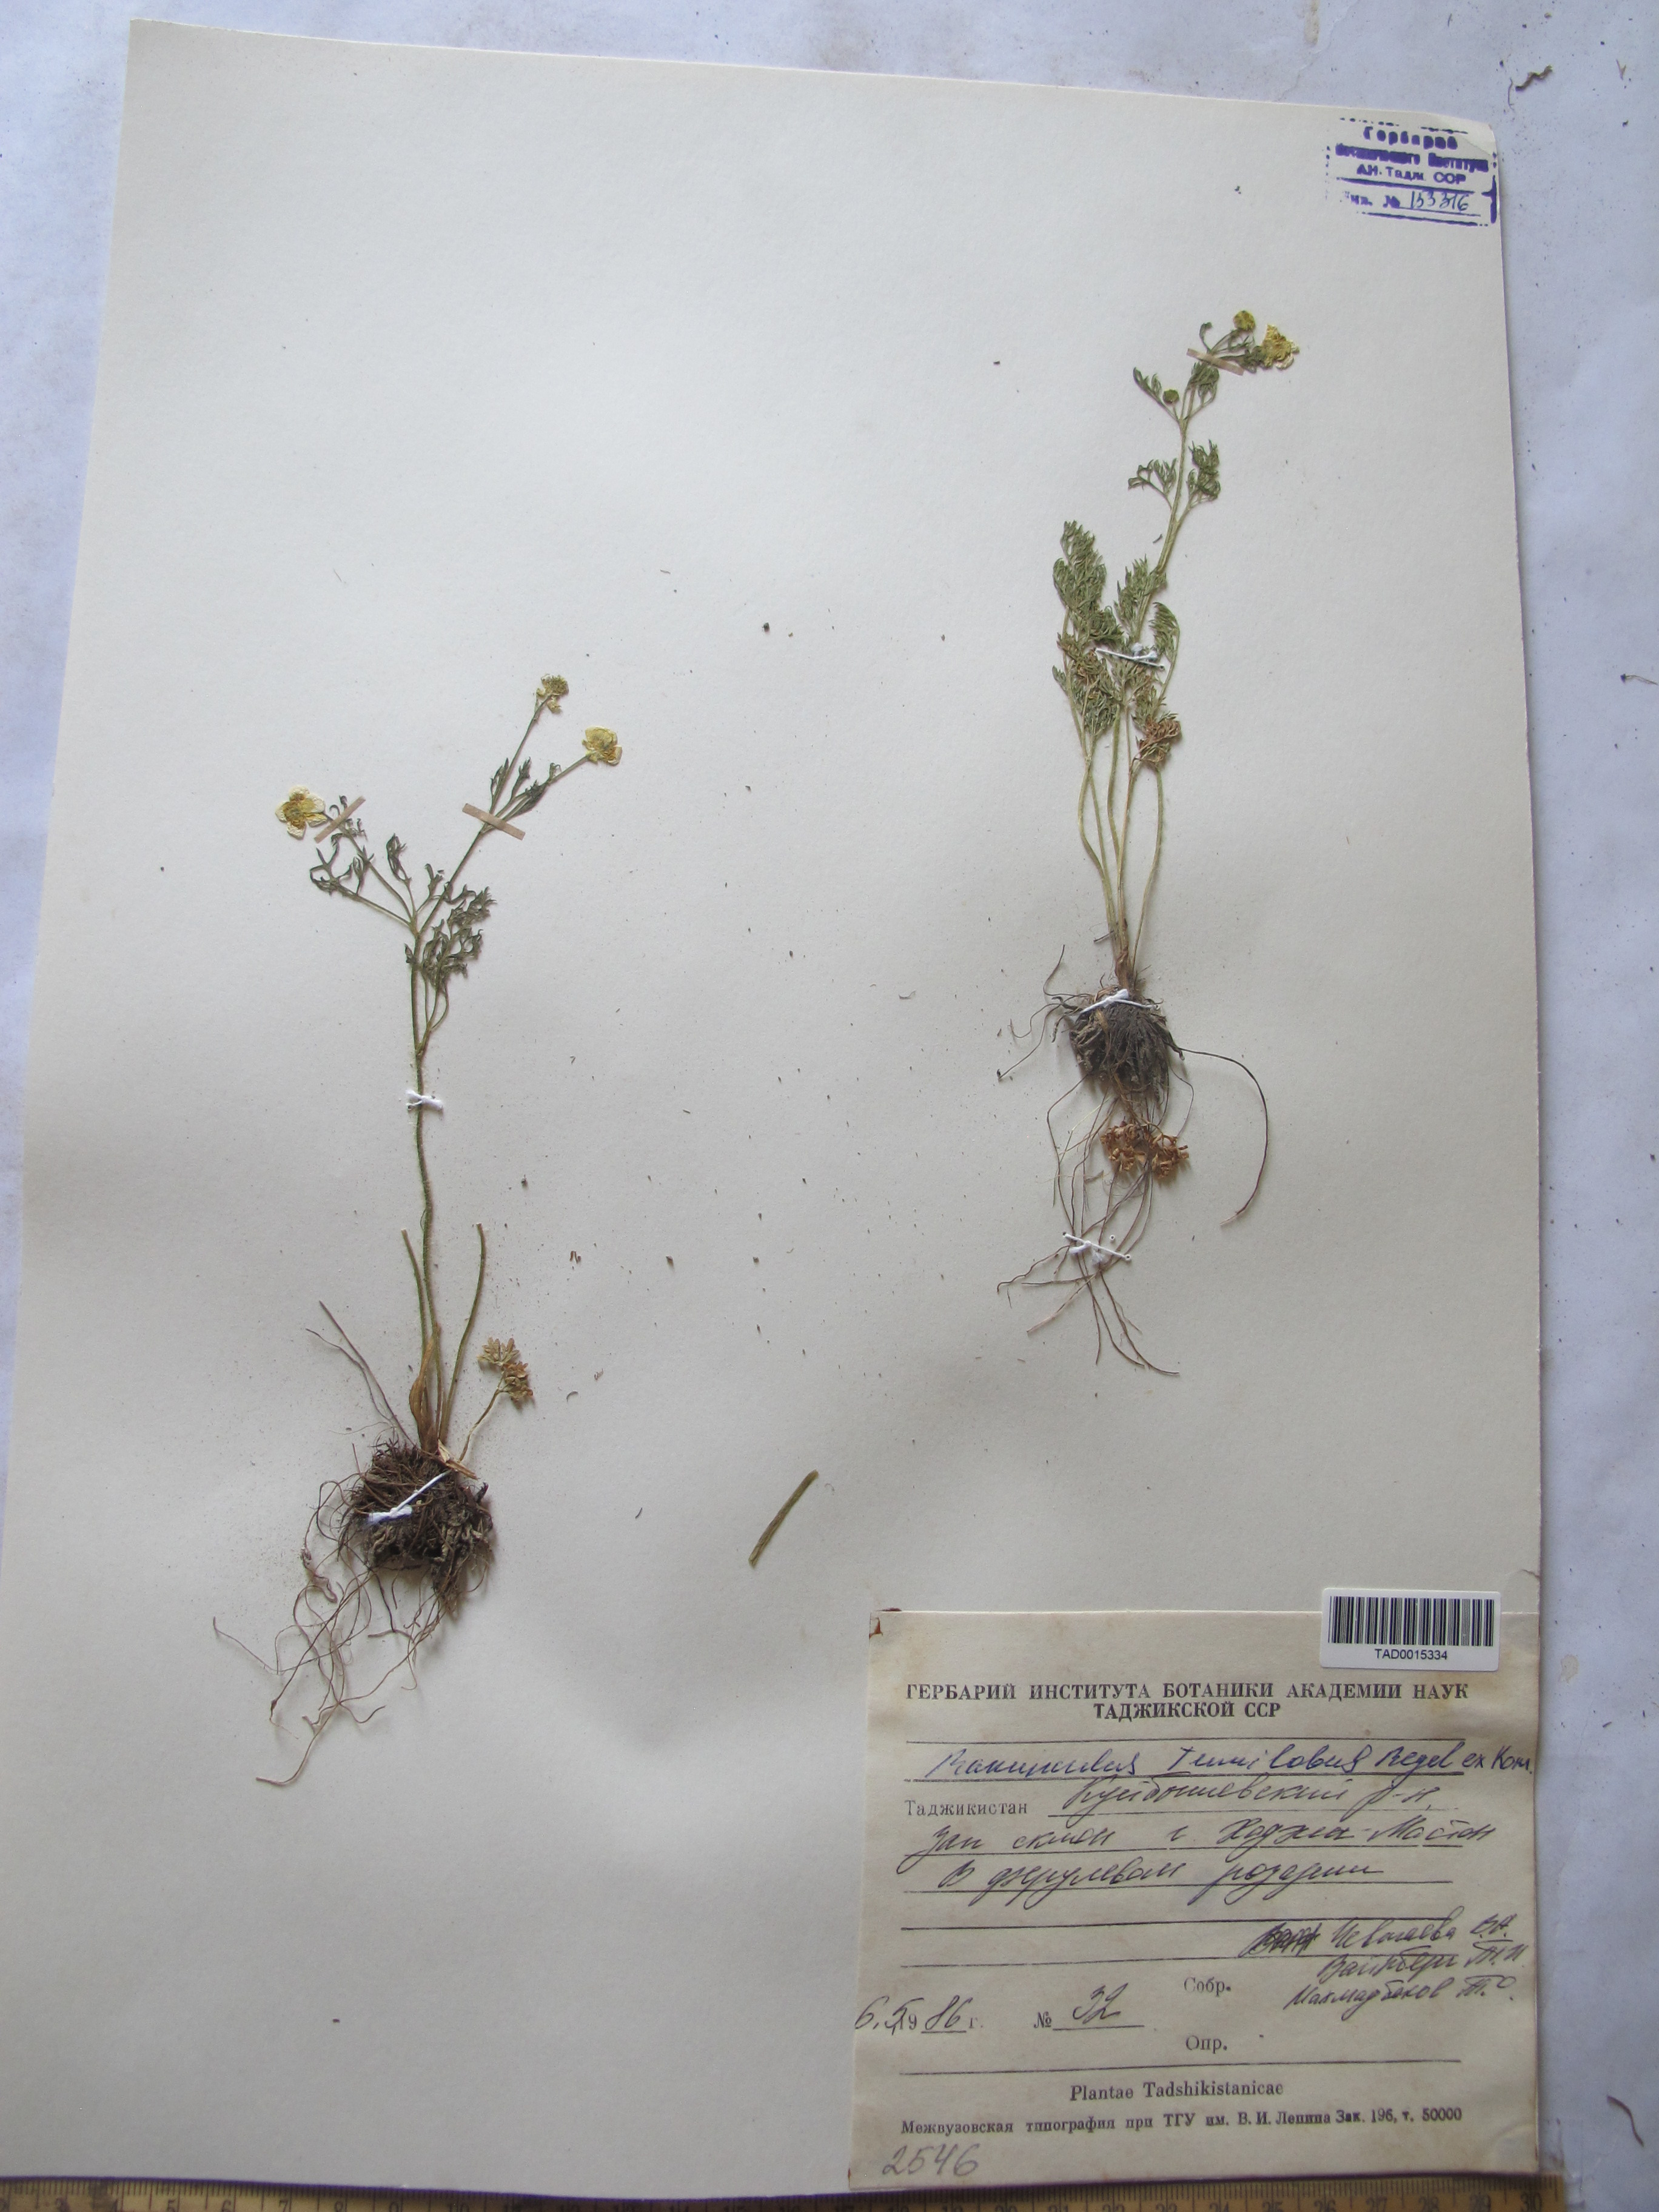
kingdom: Plantae
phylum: Tracheophyta
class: Magnoliopsida
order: Ranunculales
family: Ranunculaceae
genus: Ranunculus
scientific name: Ranunculus tenuilobus
